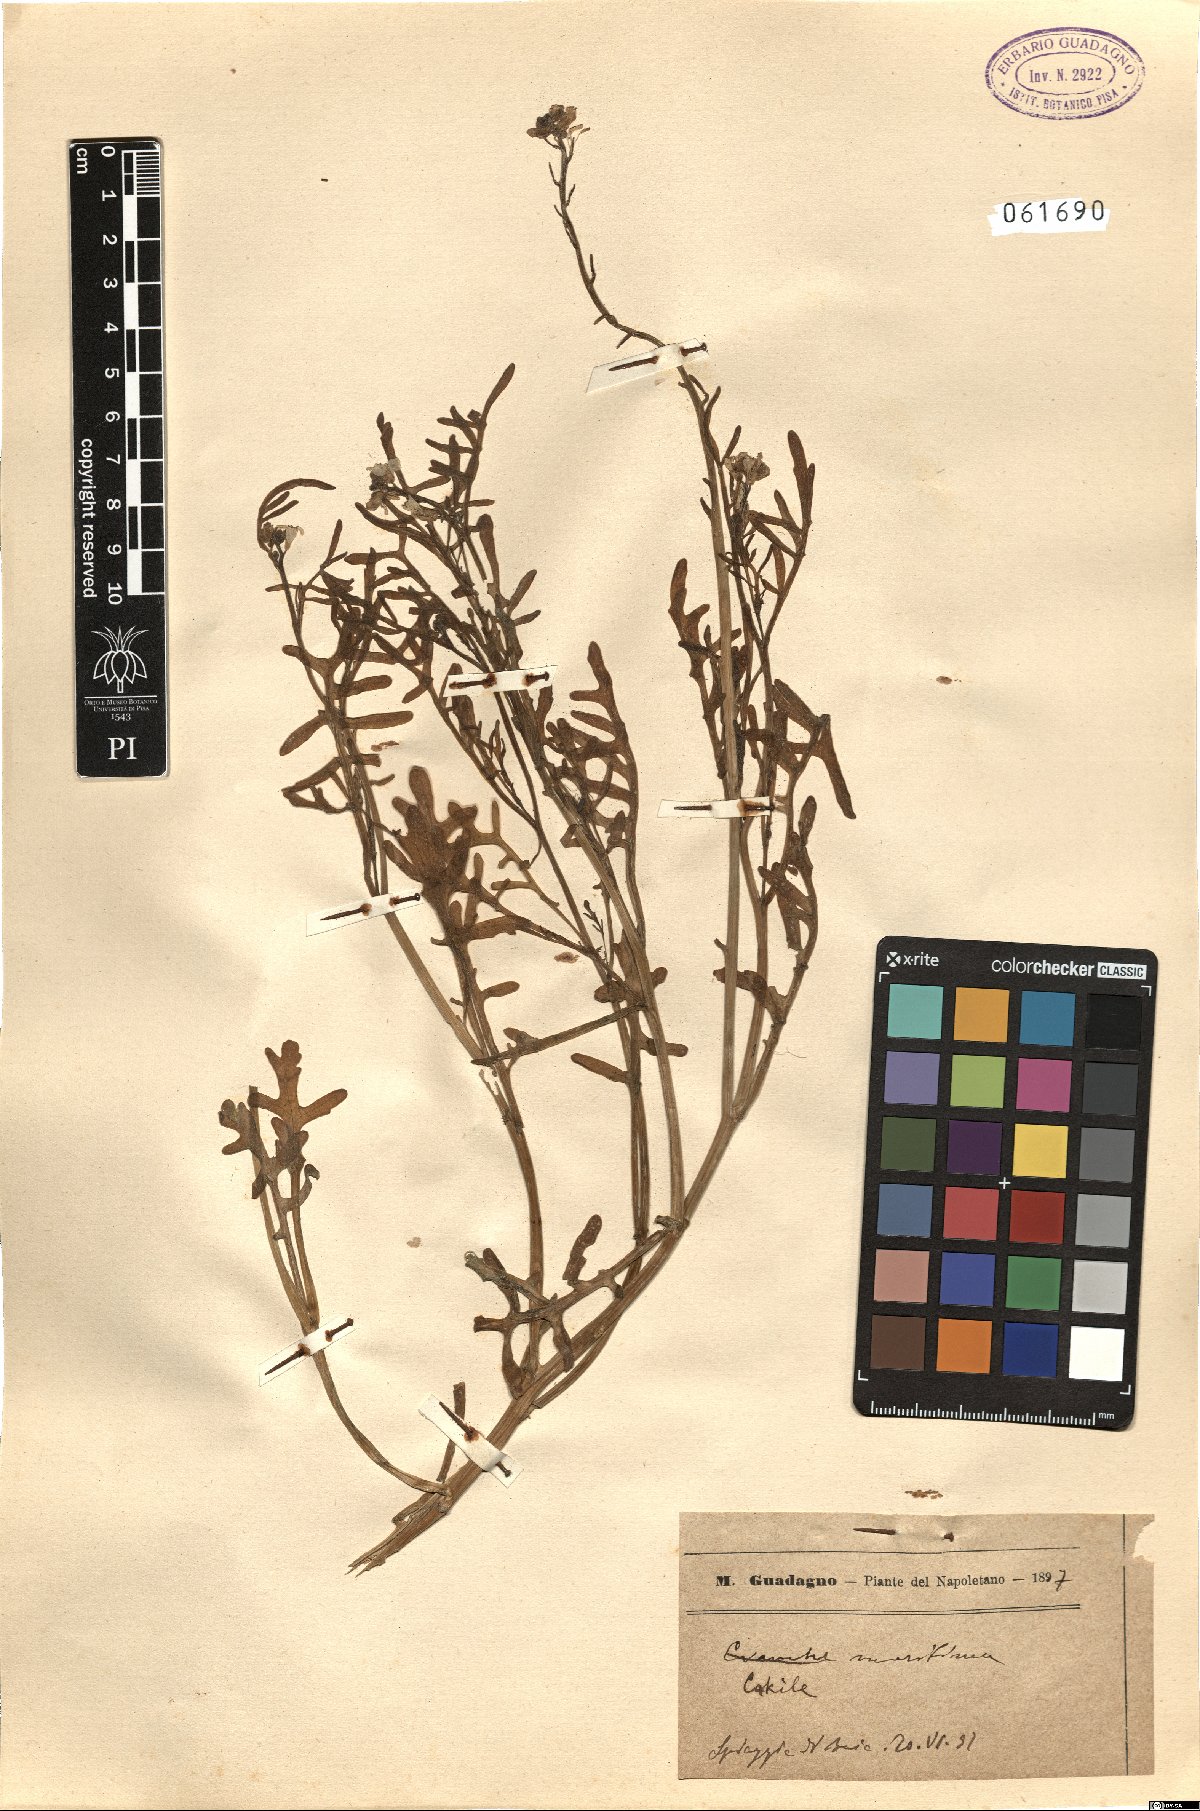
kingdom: Plantae
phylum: Tracheophyta
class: Magnoliopsida
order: Brassicales
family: Brassicaceae
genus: Cakile
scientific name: Cakile maritima
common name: Sea rocket
